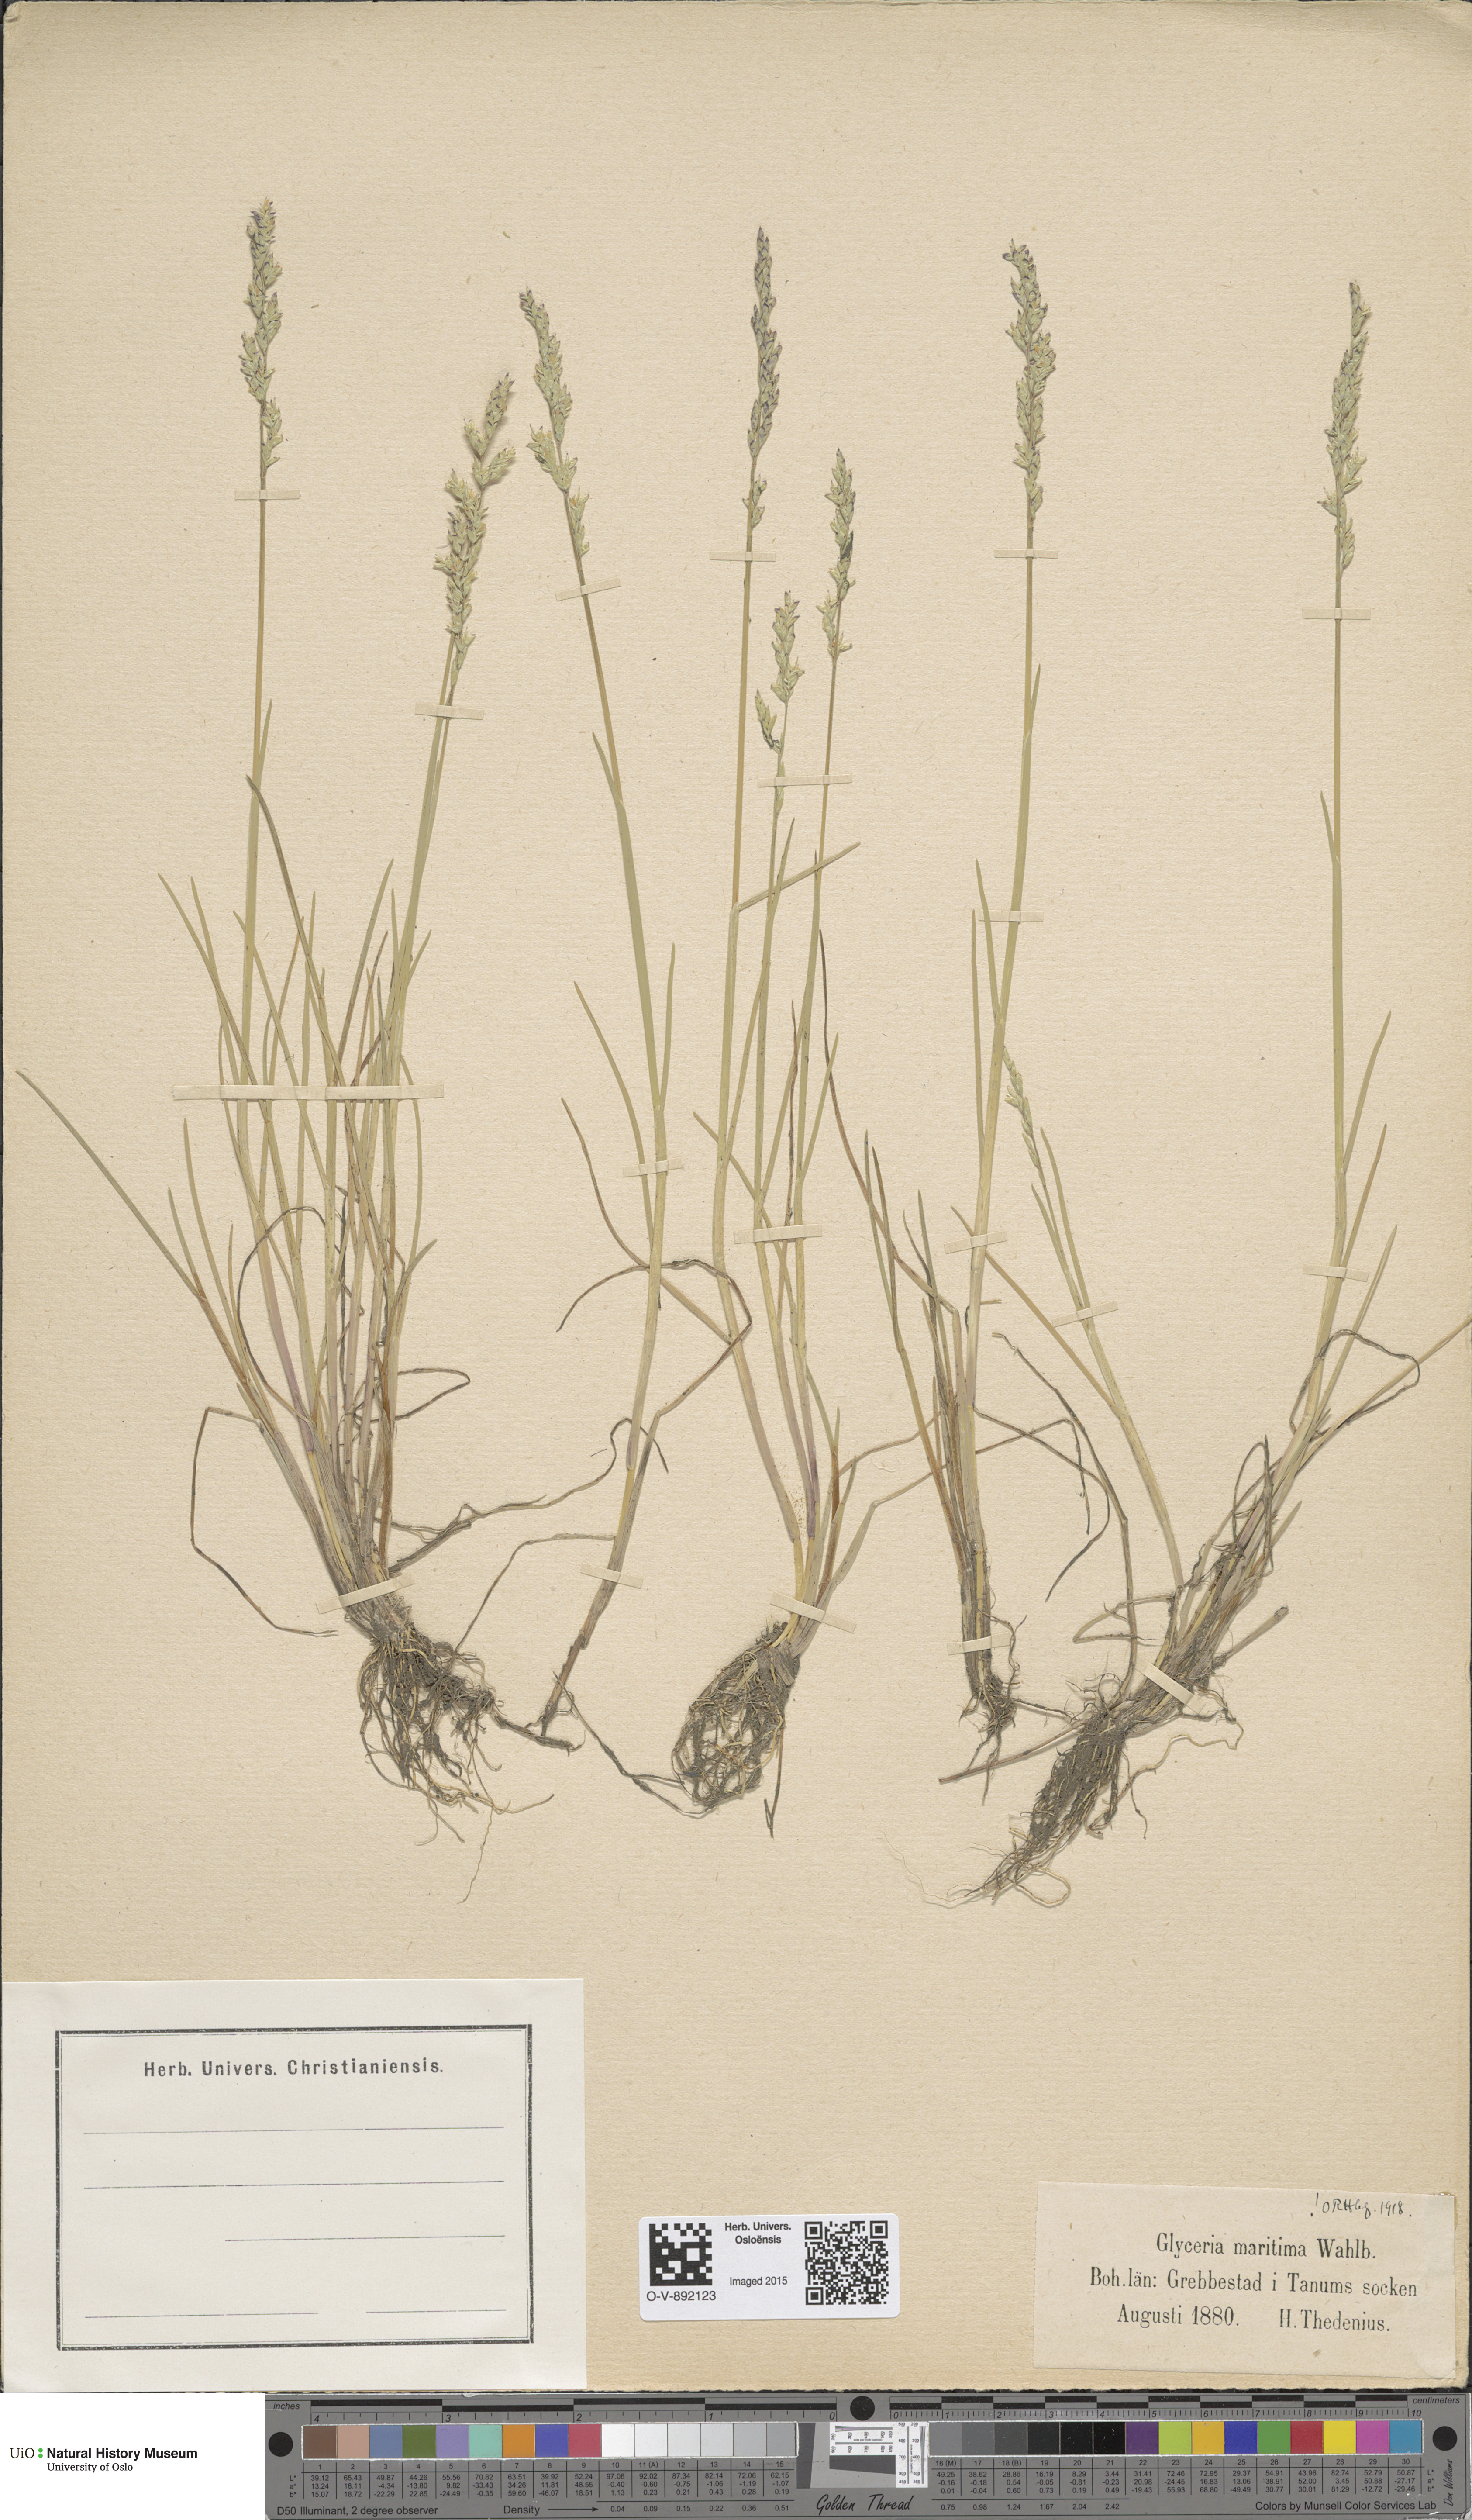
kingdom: Plantae
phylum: Tracheophyta
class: Liliopsida
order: Poales
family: Poaceae
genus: Puccinellia
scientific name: Puccinellia maritima
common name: Common saltmarsh grass
